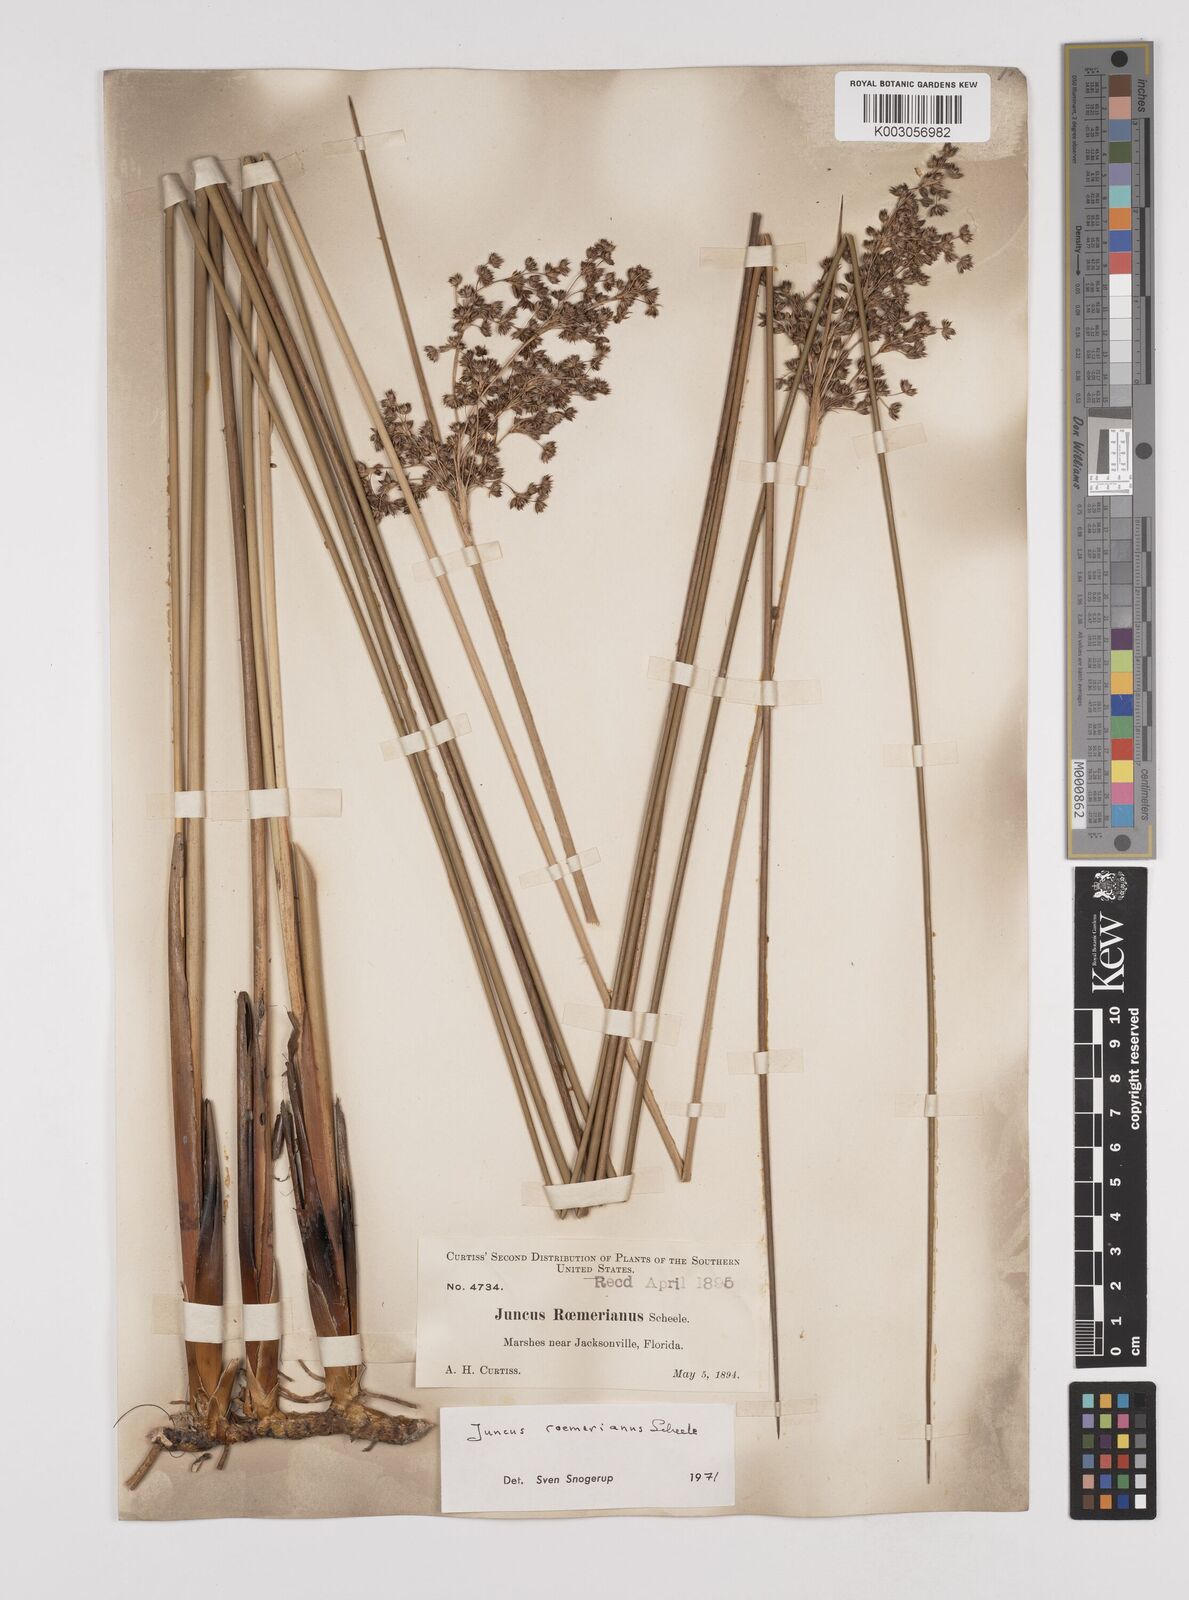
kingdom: Plantae
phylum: Tracheophyta
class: Liliopsida
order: Poales
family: Juncaceae
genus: Juncus
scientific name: Juncus roemerianus
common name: Roemer's rush
